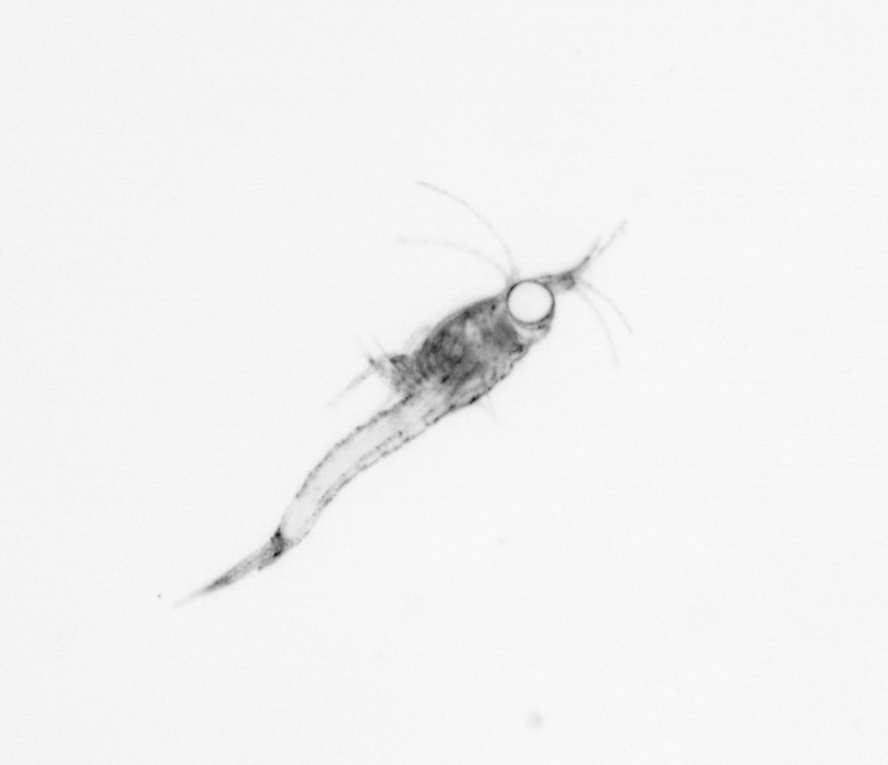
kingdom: Animalia
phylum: Arthropoda
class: Malacostraca
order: Decapoda
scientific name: Decapoda
